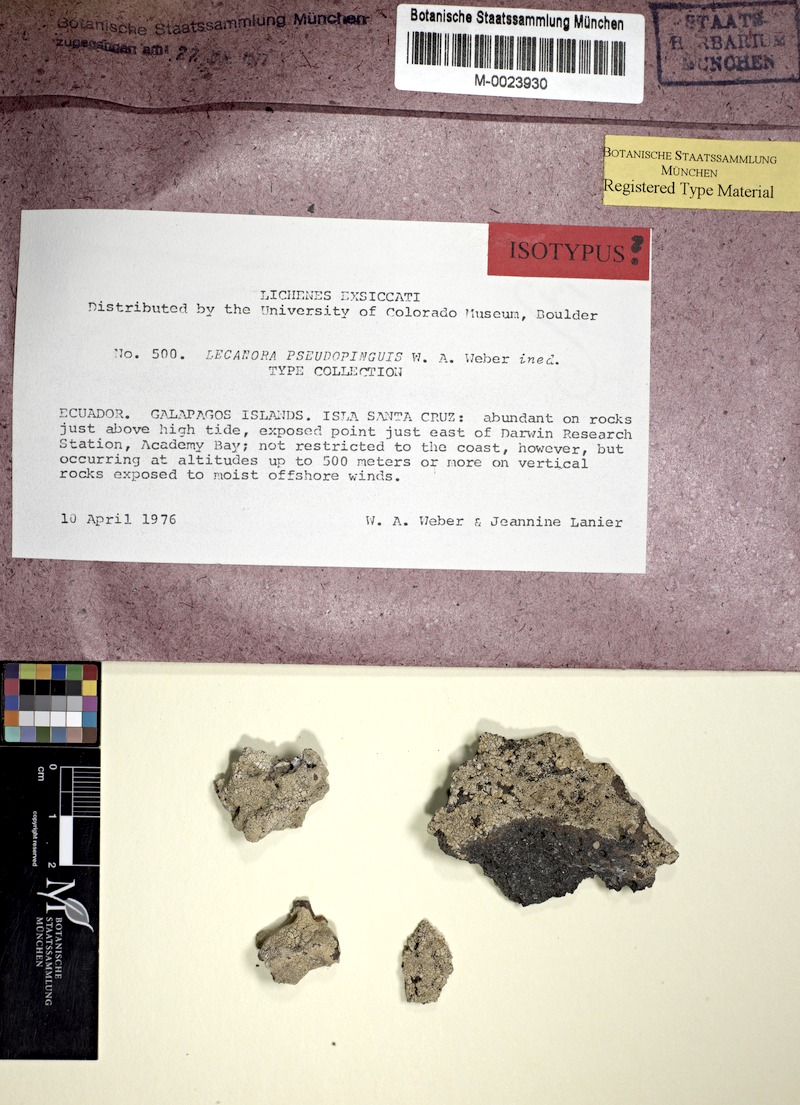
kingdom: Fungi
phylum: Ascomycota
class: Lecanoromycetes
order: Lecanorales
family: Lecanoraceae
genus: Lecanora
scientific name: Lecanora pseudopinguis
